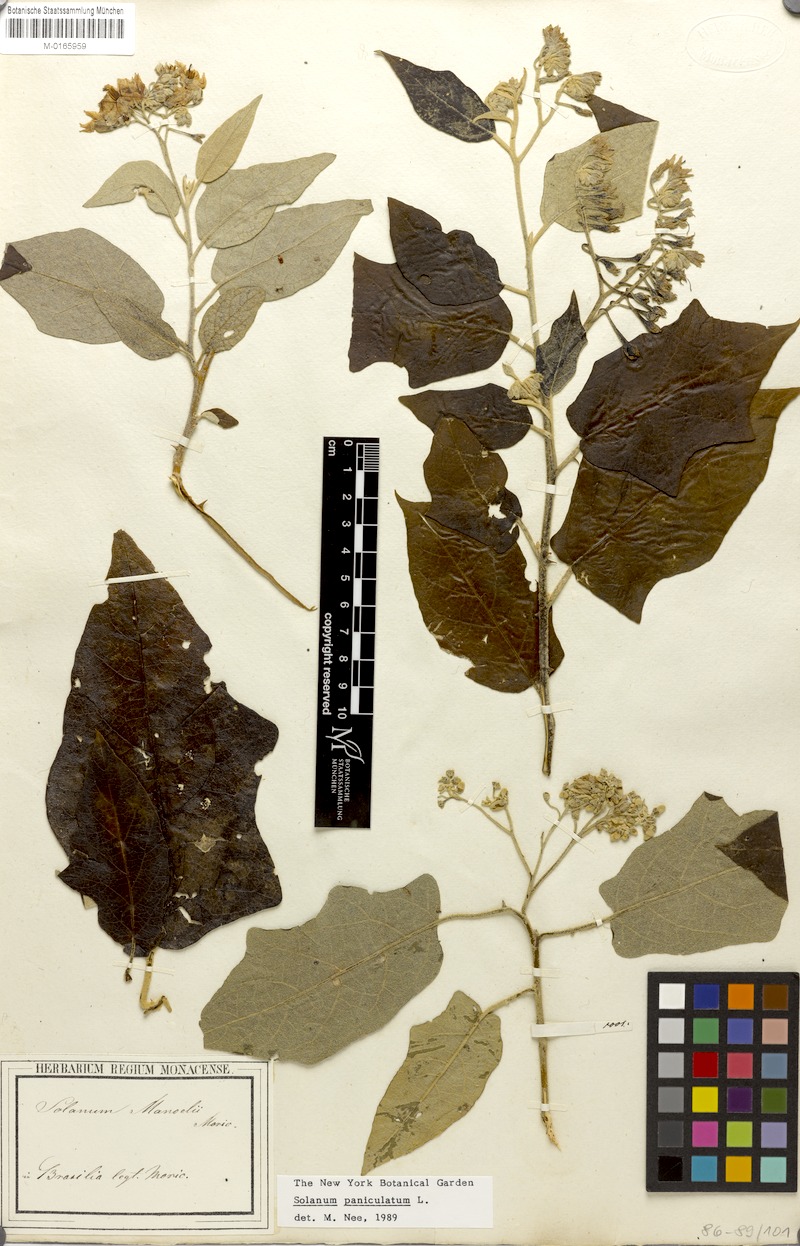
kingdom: Plantae
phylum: Tracheophyta
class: Magnoliopsida
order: Solanales
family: Solanaceae
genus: Solanum
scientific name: Solanum paniculatum
